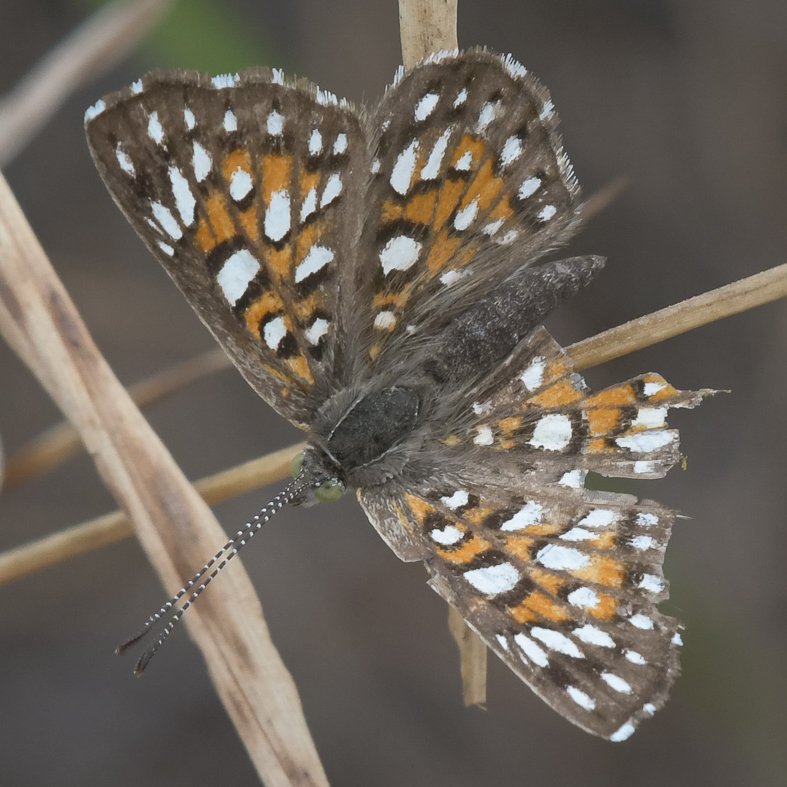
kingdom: Animalia
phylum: Arthropoda
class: Insecta
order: Lepidoptera
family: Riodinidae
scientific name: Riodinidae
